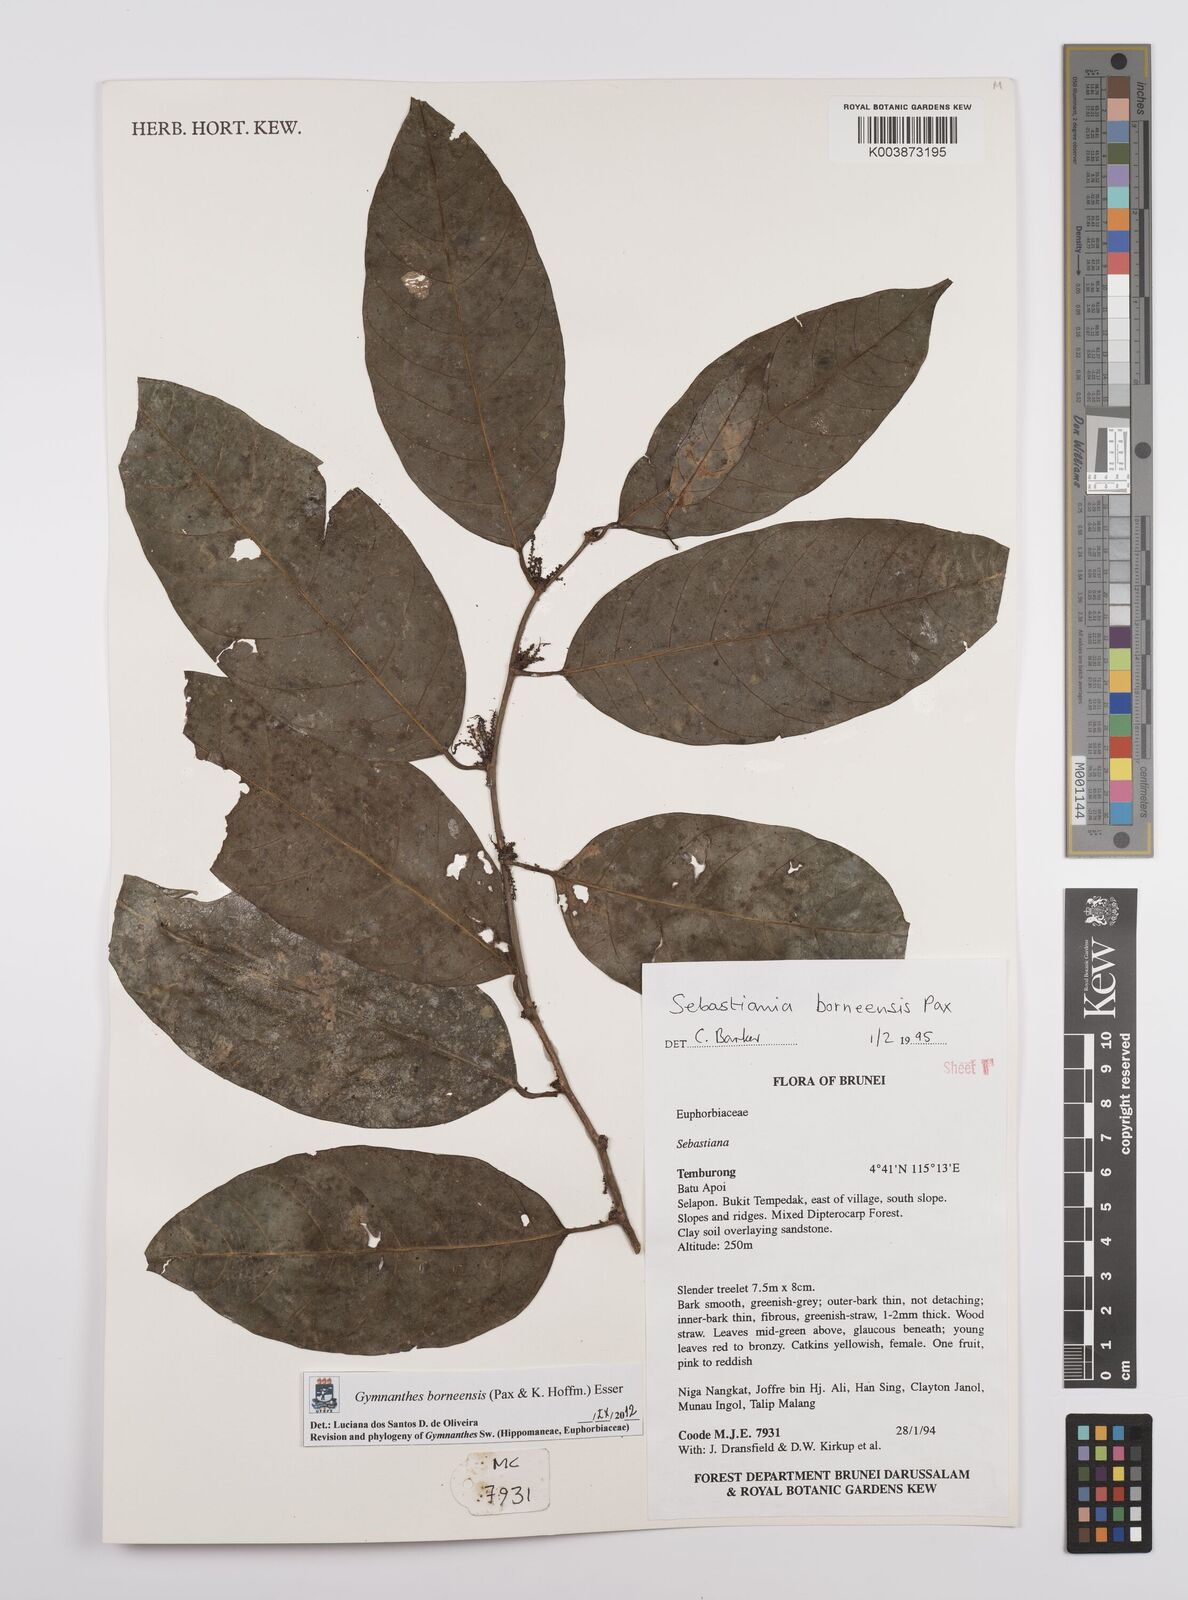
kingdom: Plantae
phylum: Tracheophyta
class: Magnoliopsida
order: Malpighiales
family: Euphorbiaceae
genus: Gymnanthes
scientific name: Gymnanthes borneensis
